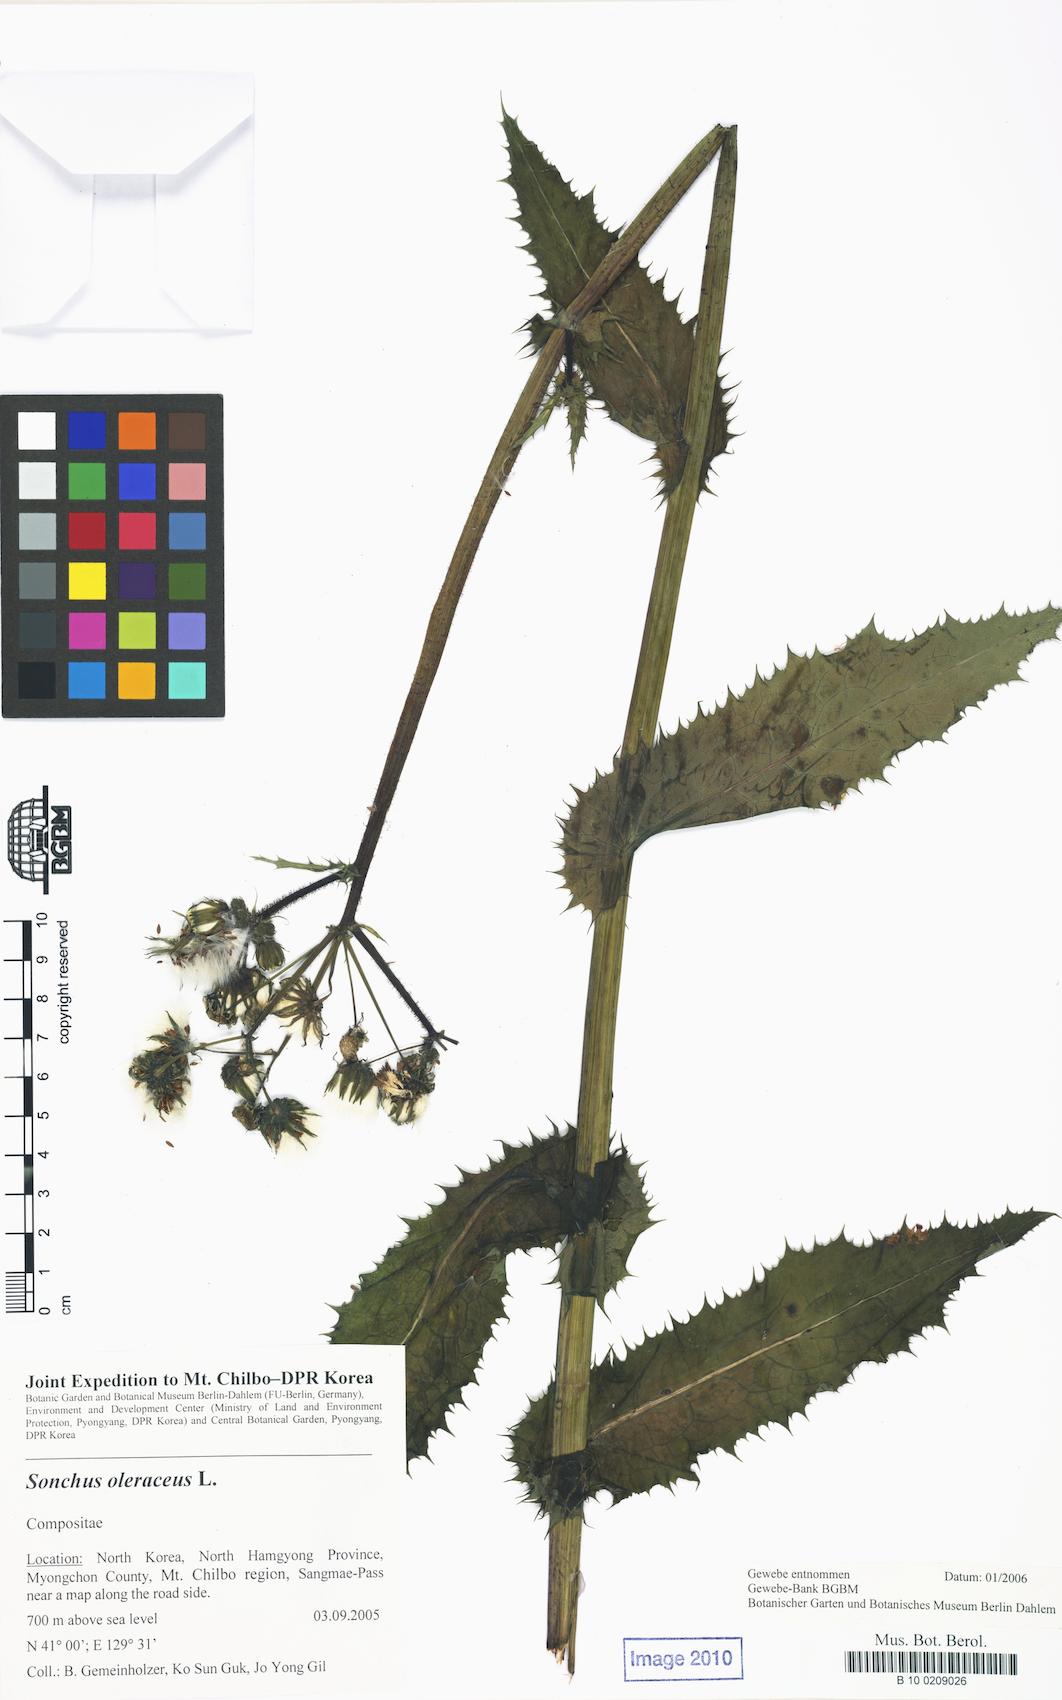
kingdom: Plantae
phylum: Tracheophyta
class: Magnoliopsida
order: Asterales
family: Asteraceae
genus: Sonchus
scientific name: Sonchus oleraceus
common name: Common sowthistle
